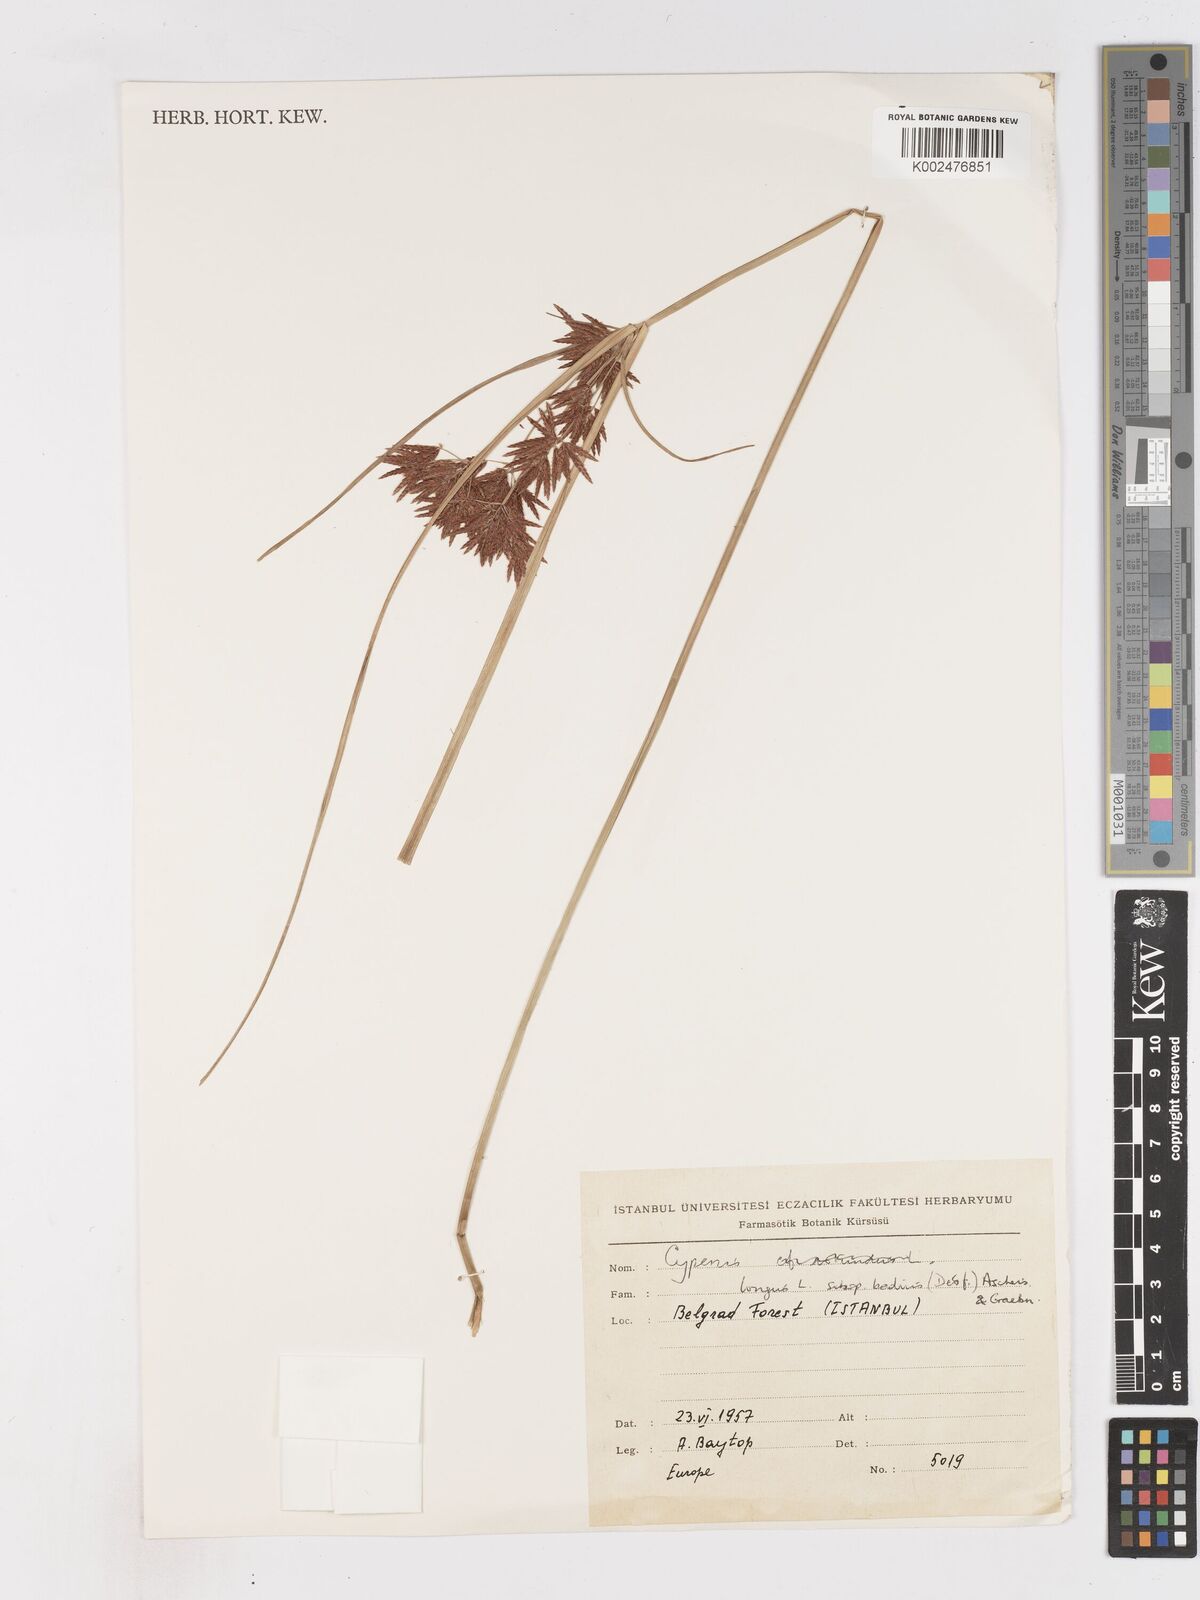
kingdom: Plantae
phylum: Tracheophyta
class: Liliopsida
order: Poales
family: Cyperaceae
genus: Cyperus
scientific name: Cyperus longus
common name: Galingale
